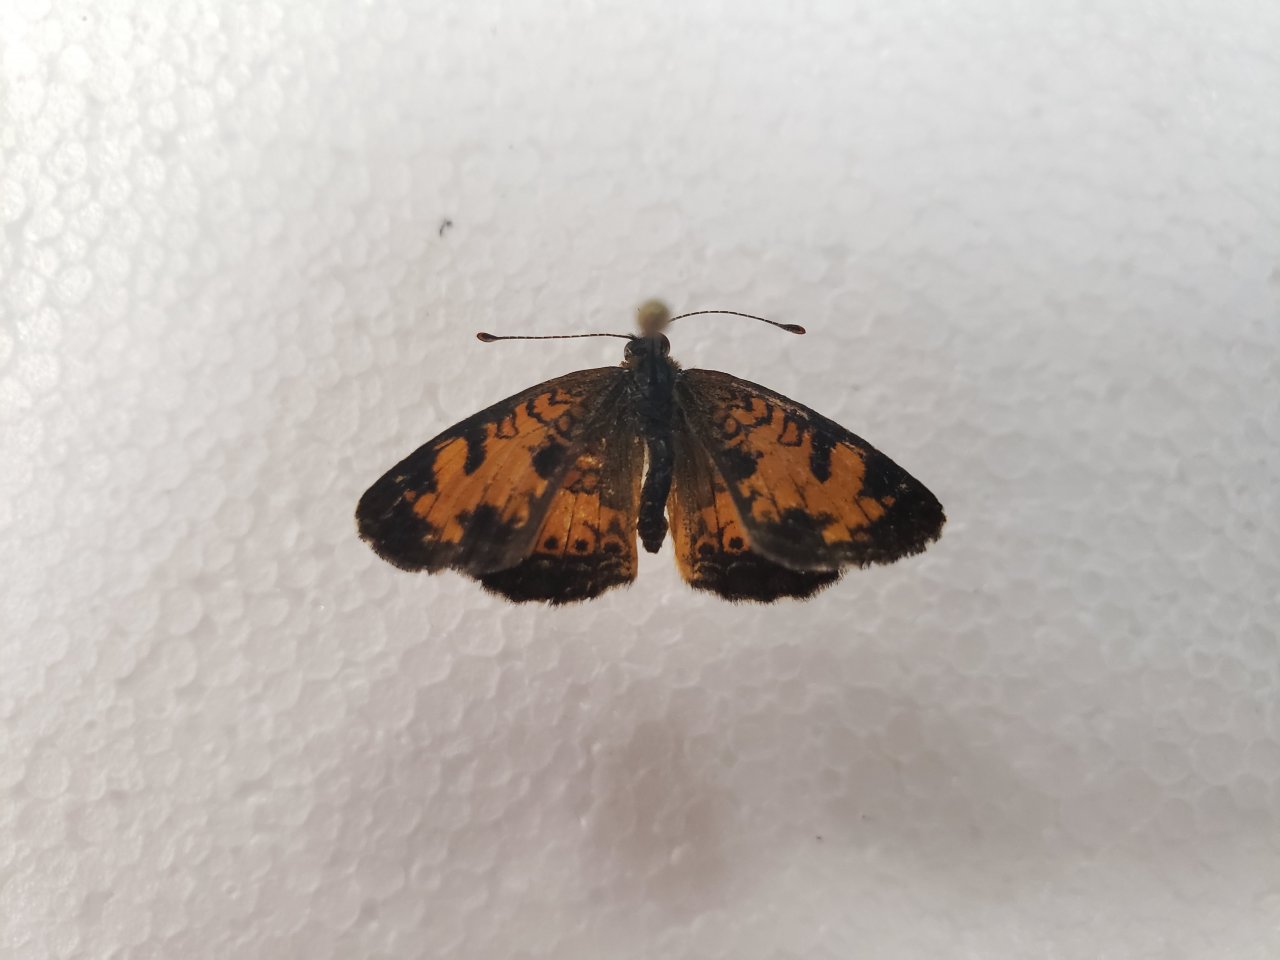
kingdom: Animalia
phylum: Arthropoda
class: Insecta
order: Lepidoptera
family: Nymphalidae
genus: Phyciodes
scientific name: Phyciodes tharos
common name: Northern Crescent
